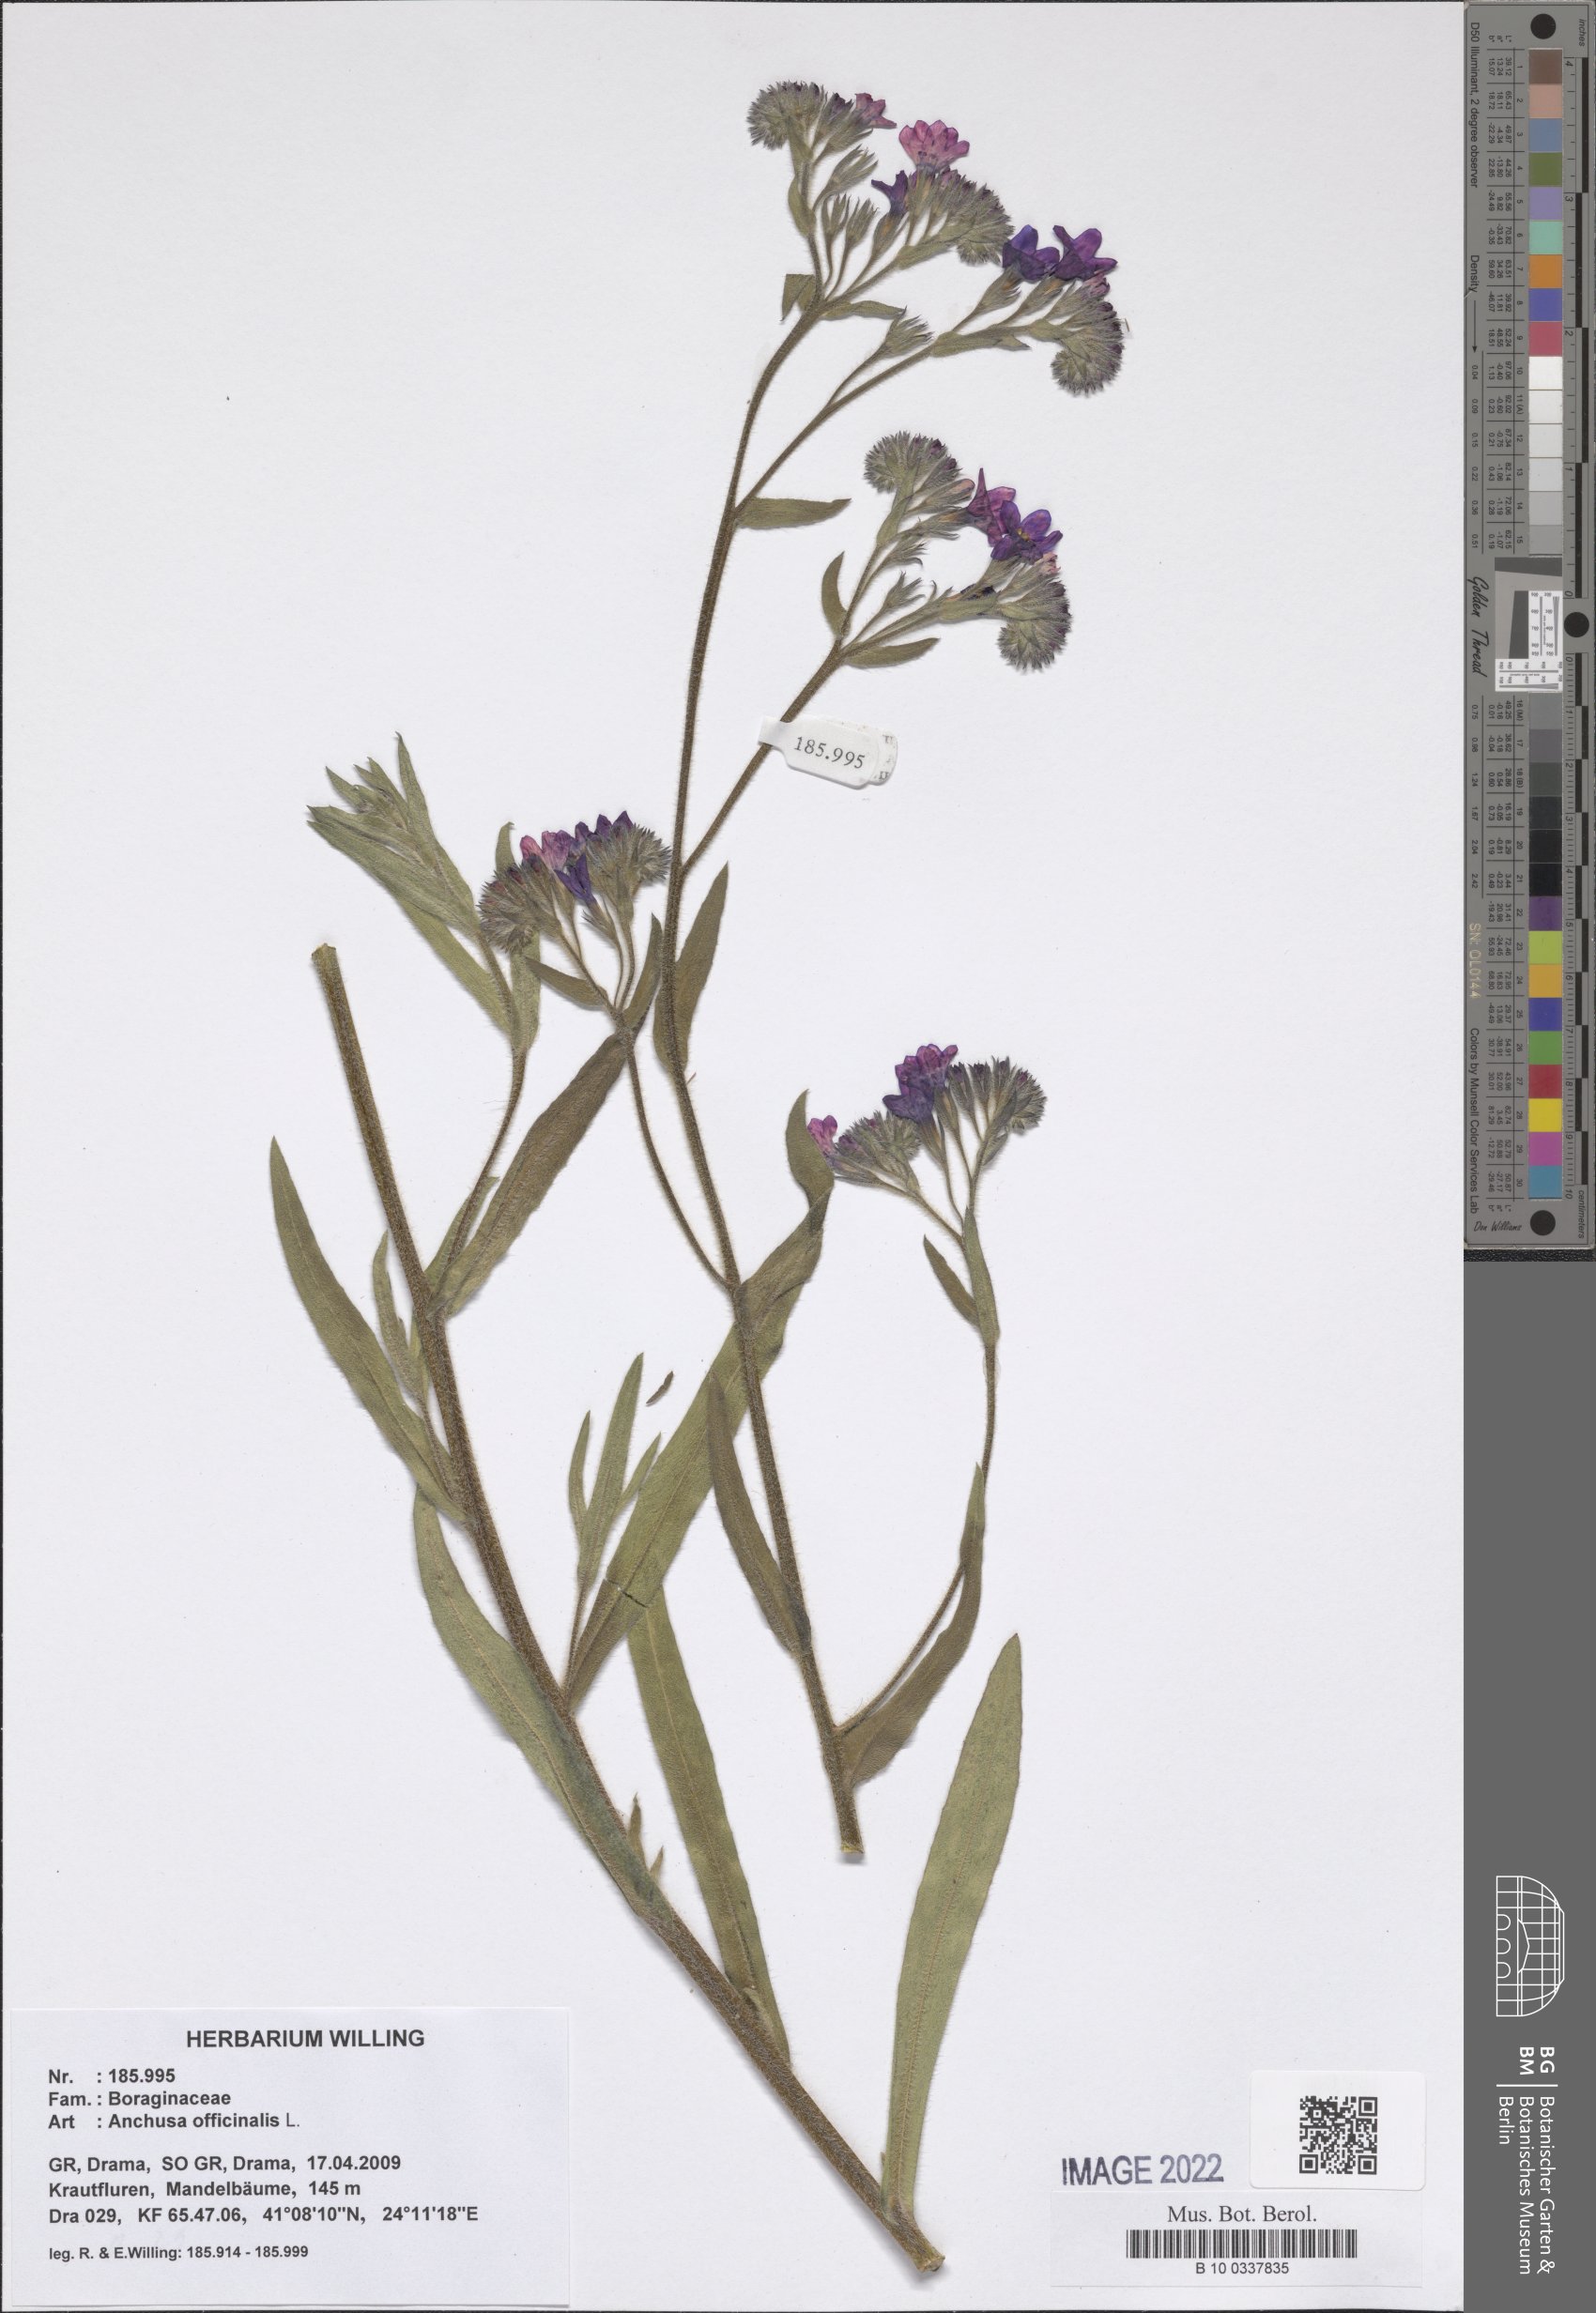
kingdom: Plantae
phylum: Tracheophyta
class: Magnoliopsida
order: Boraginales
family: Boraginaceae
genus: Anchusa
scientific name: Anchusa officinalis
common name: Alkanet
